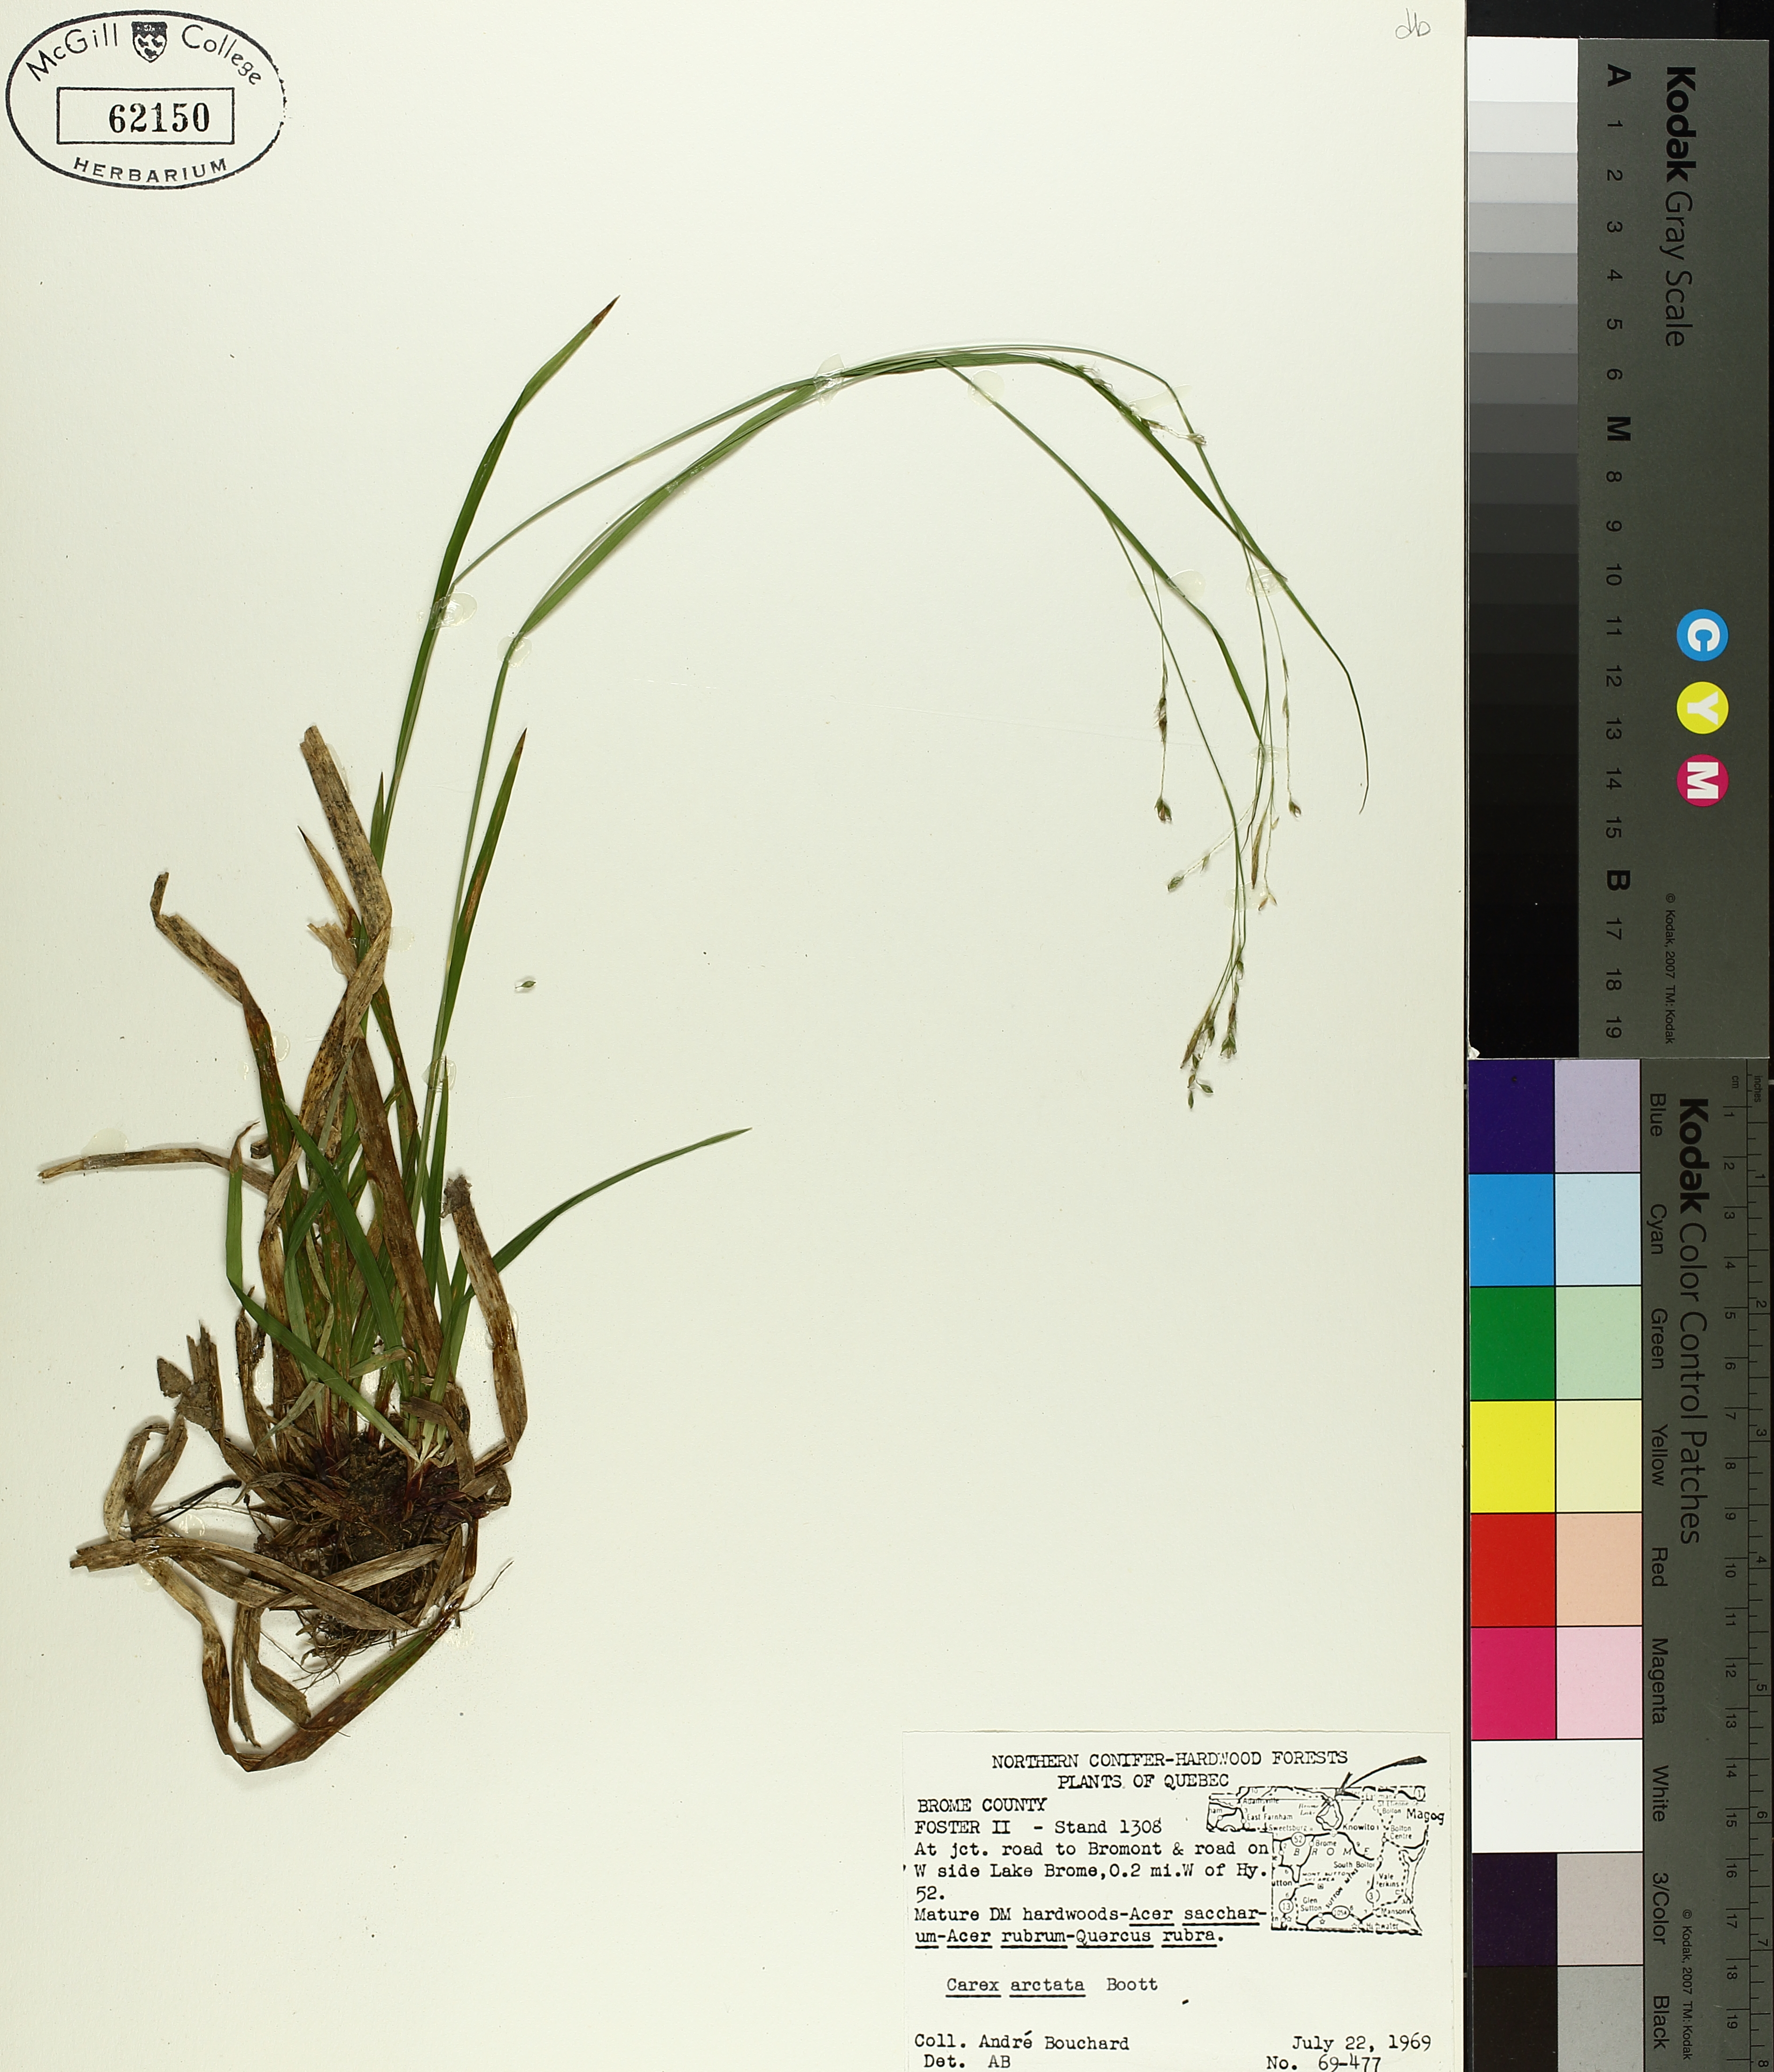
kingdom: Plantae
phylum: Tracheophyta
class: Liliopsida
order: Poales
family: Cyperaceae
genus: Carex
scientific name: Carex arctata
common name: Black sedge
